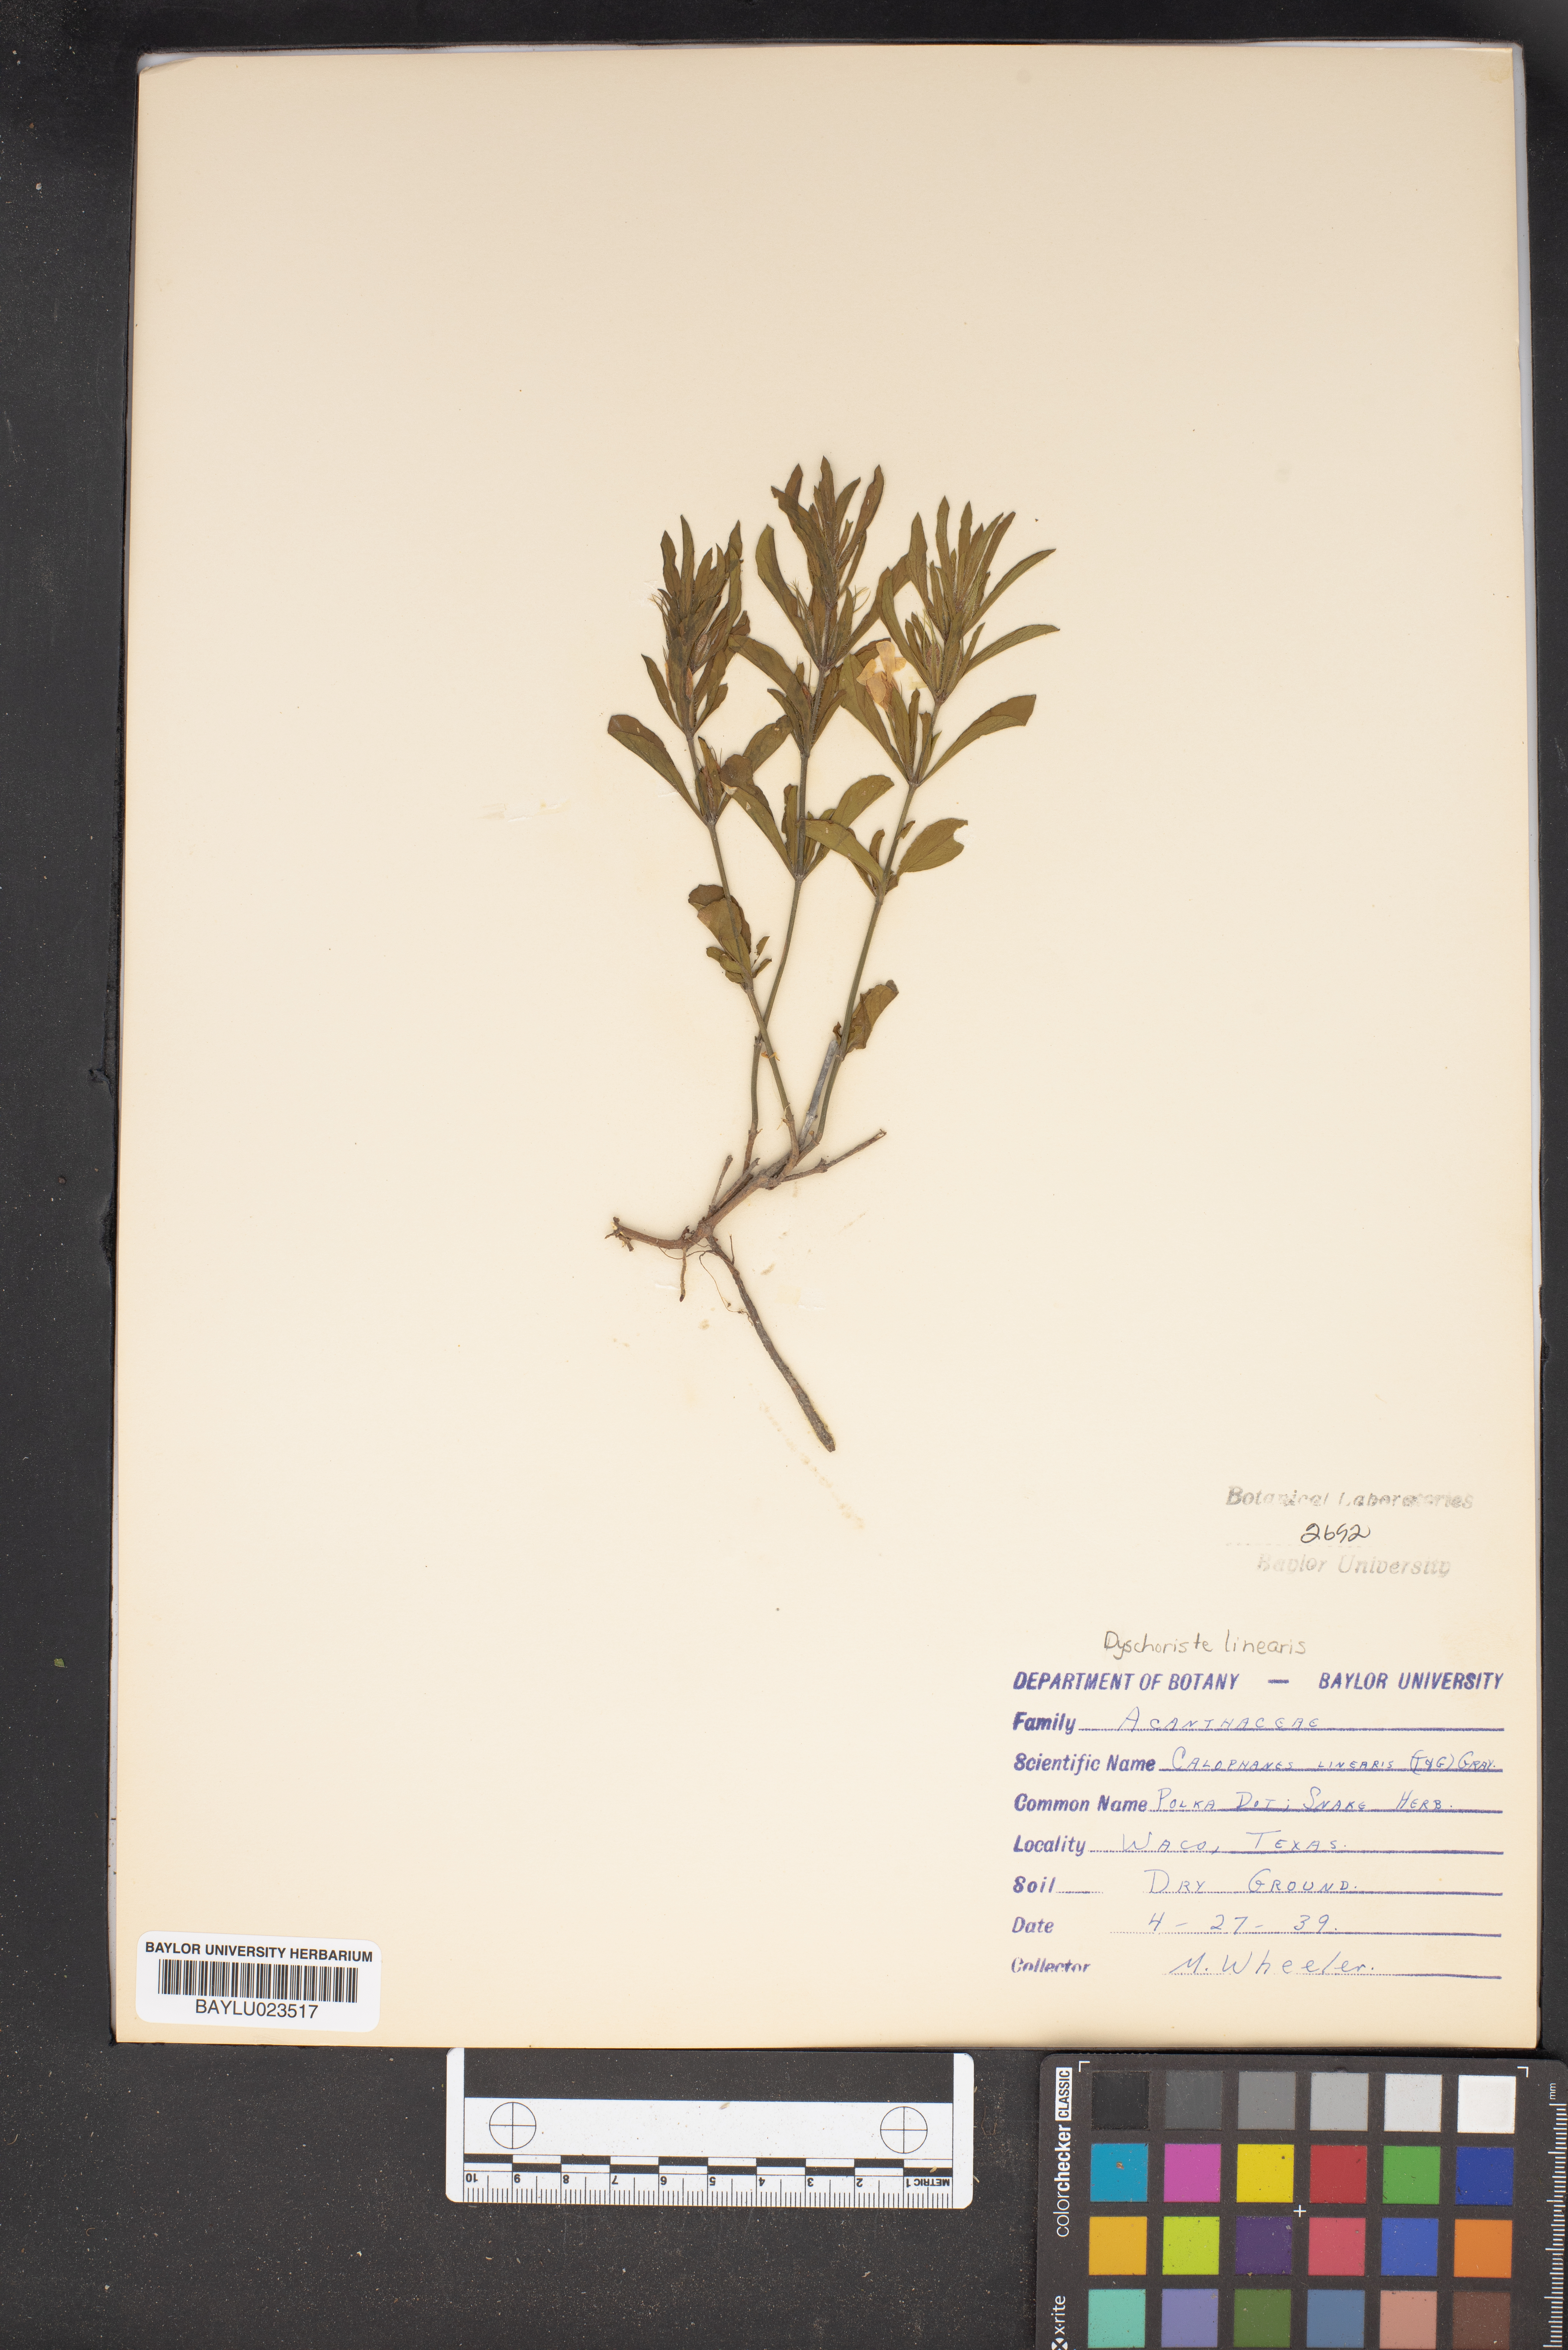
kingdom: Plantae
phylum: Tracheophyta
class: Magnoliopsida
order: Lamiales
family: Acanthaceae
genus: Dyschoriste
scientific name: Dyschoriste linearis
